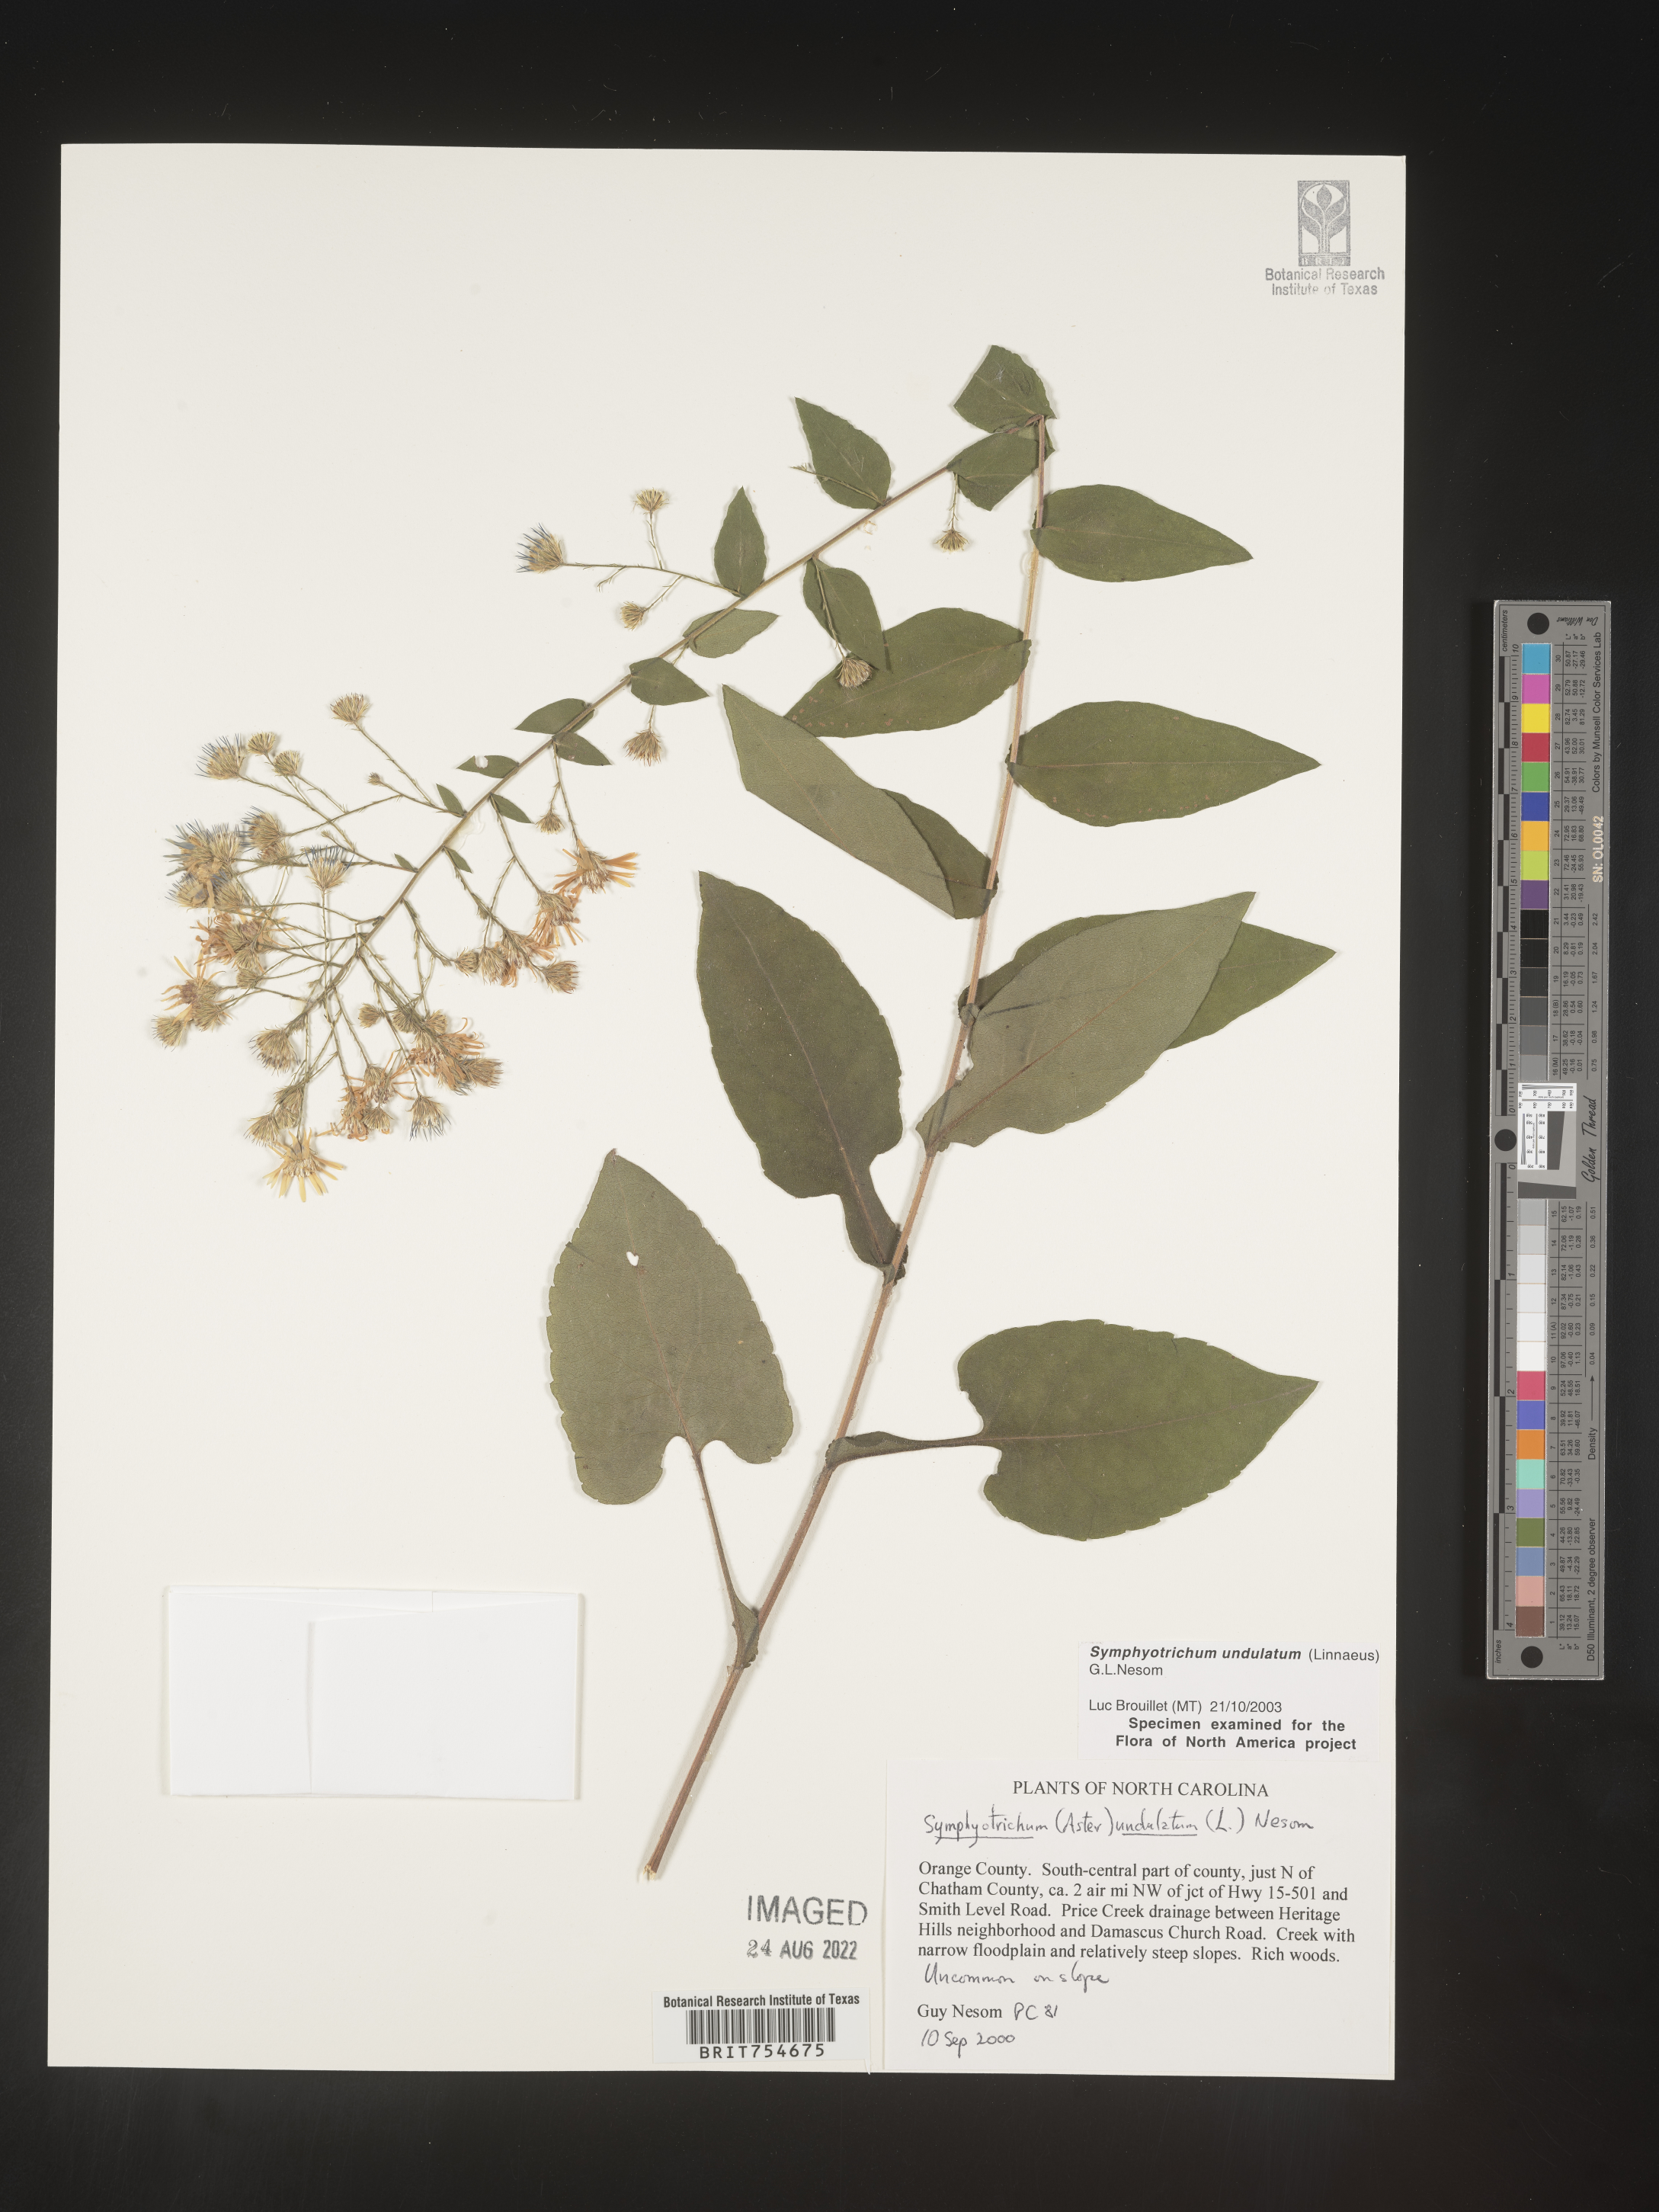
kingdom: Plantae
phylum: Tracheophyta
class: Magnoliopsida
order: Asterales
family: Asteraceae
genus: Symphyotrichum
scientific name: Symphyotrichum undulatum
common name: Clasping heart-leaf aster
